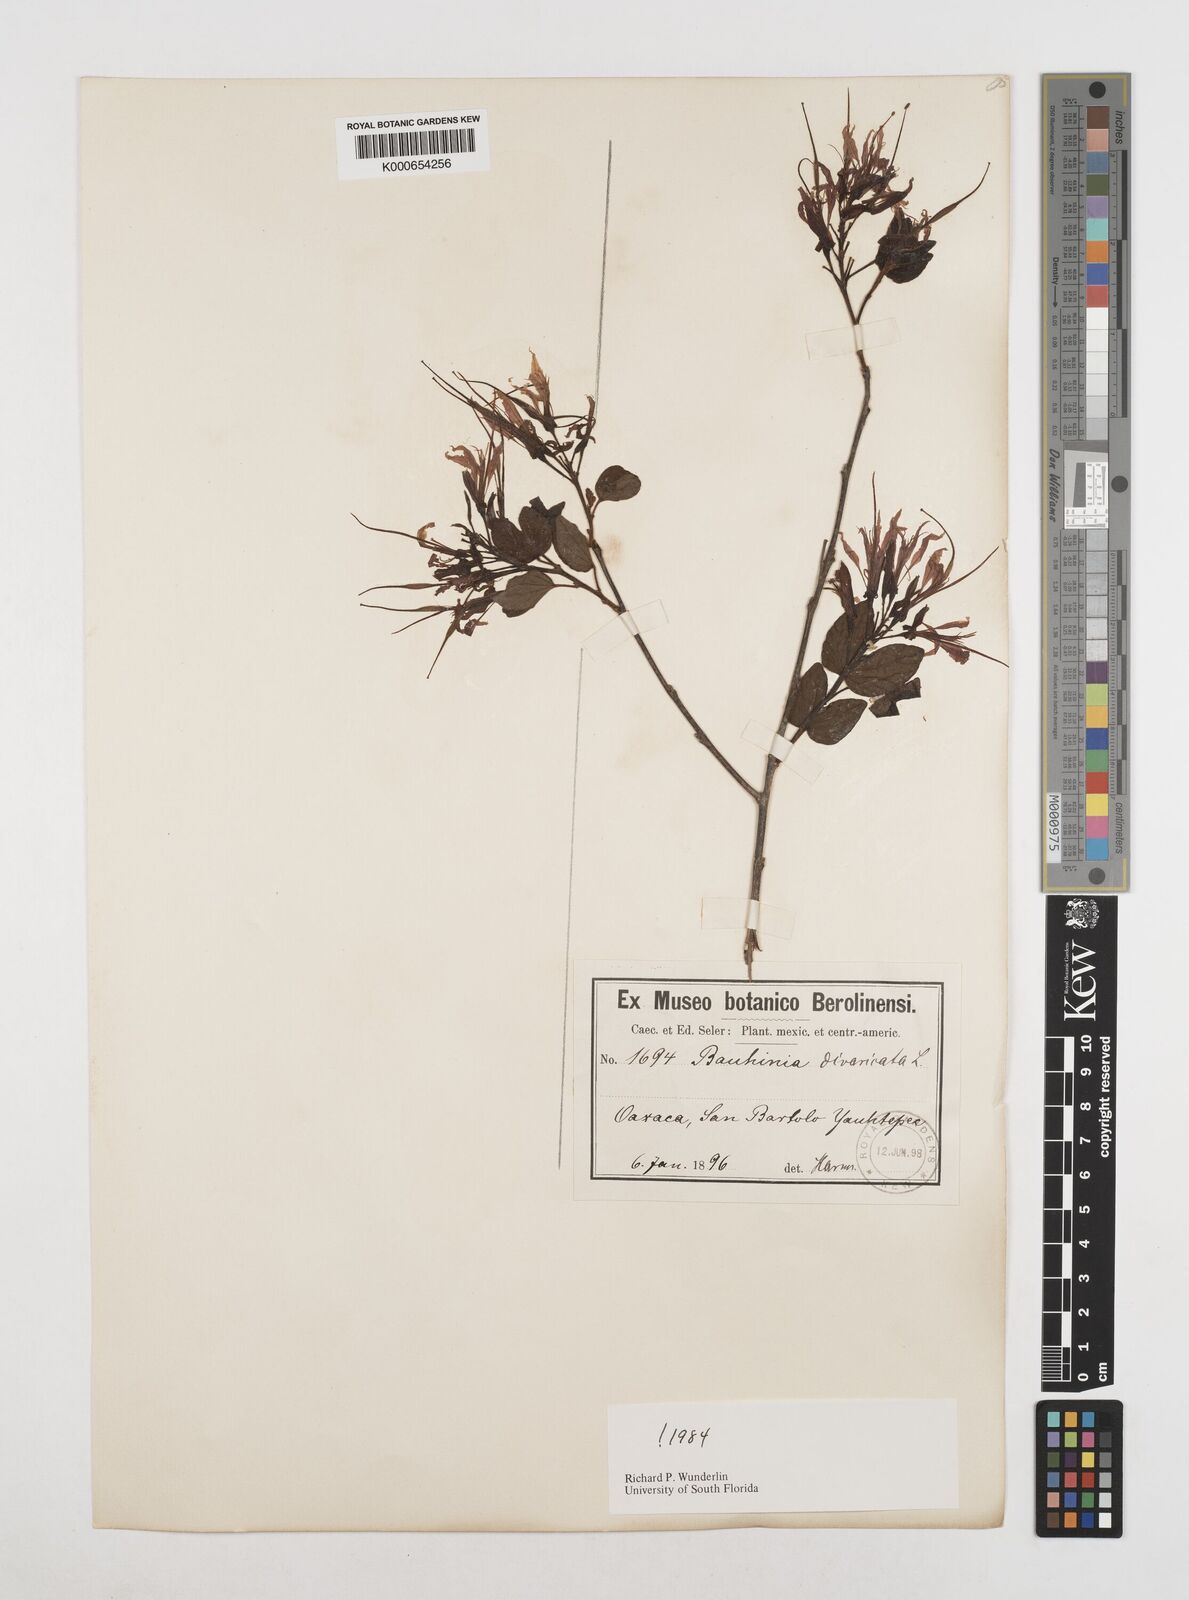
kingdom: Plantae
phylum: Tracheophyta
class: Magnoliopsida
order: Fabales
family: Fabaceae
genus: Bauhinia
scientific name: Bauhinia divaricata
